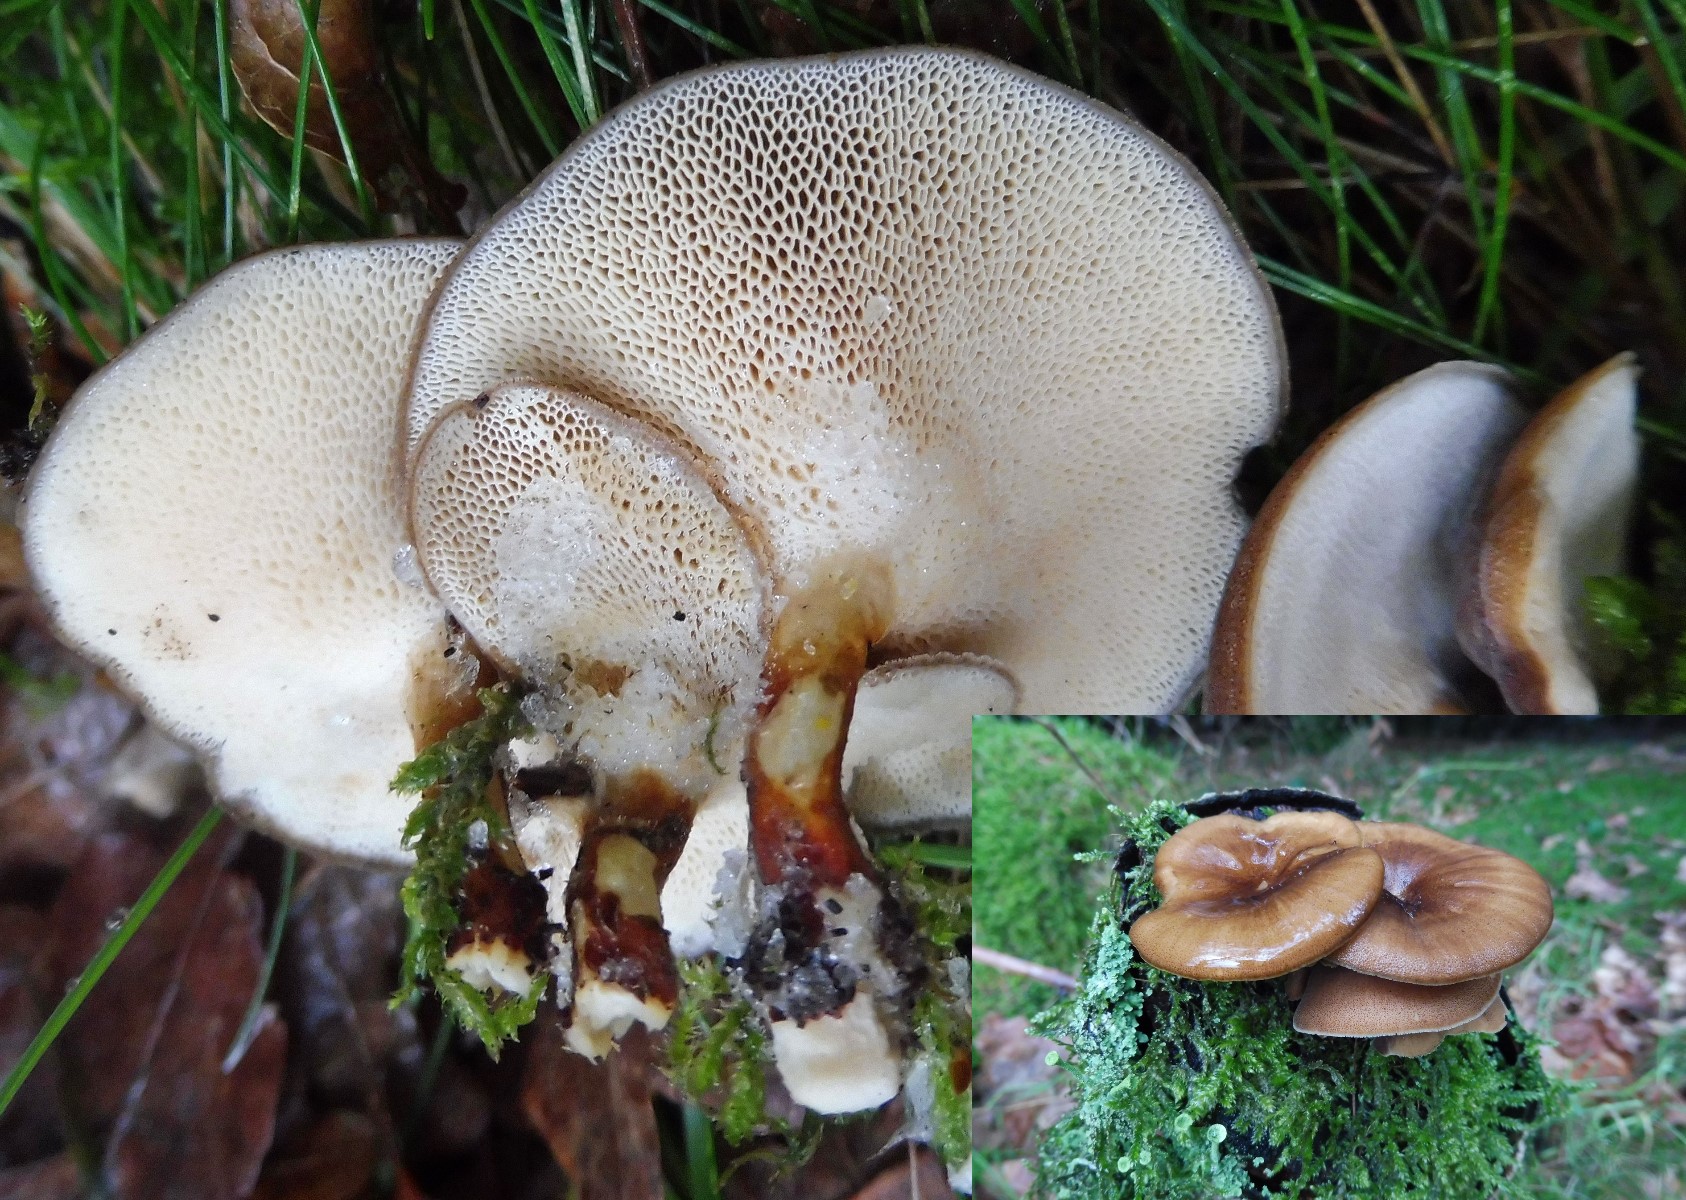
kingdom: Fungi
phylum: Basidiomycota
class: Agaricomycetes
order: Polyporales
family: Polyporaceae
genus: Lentinus
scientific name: Lentinus brumalis
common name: vinter-stilkporesvamp
